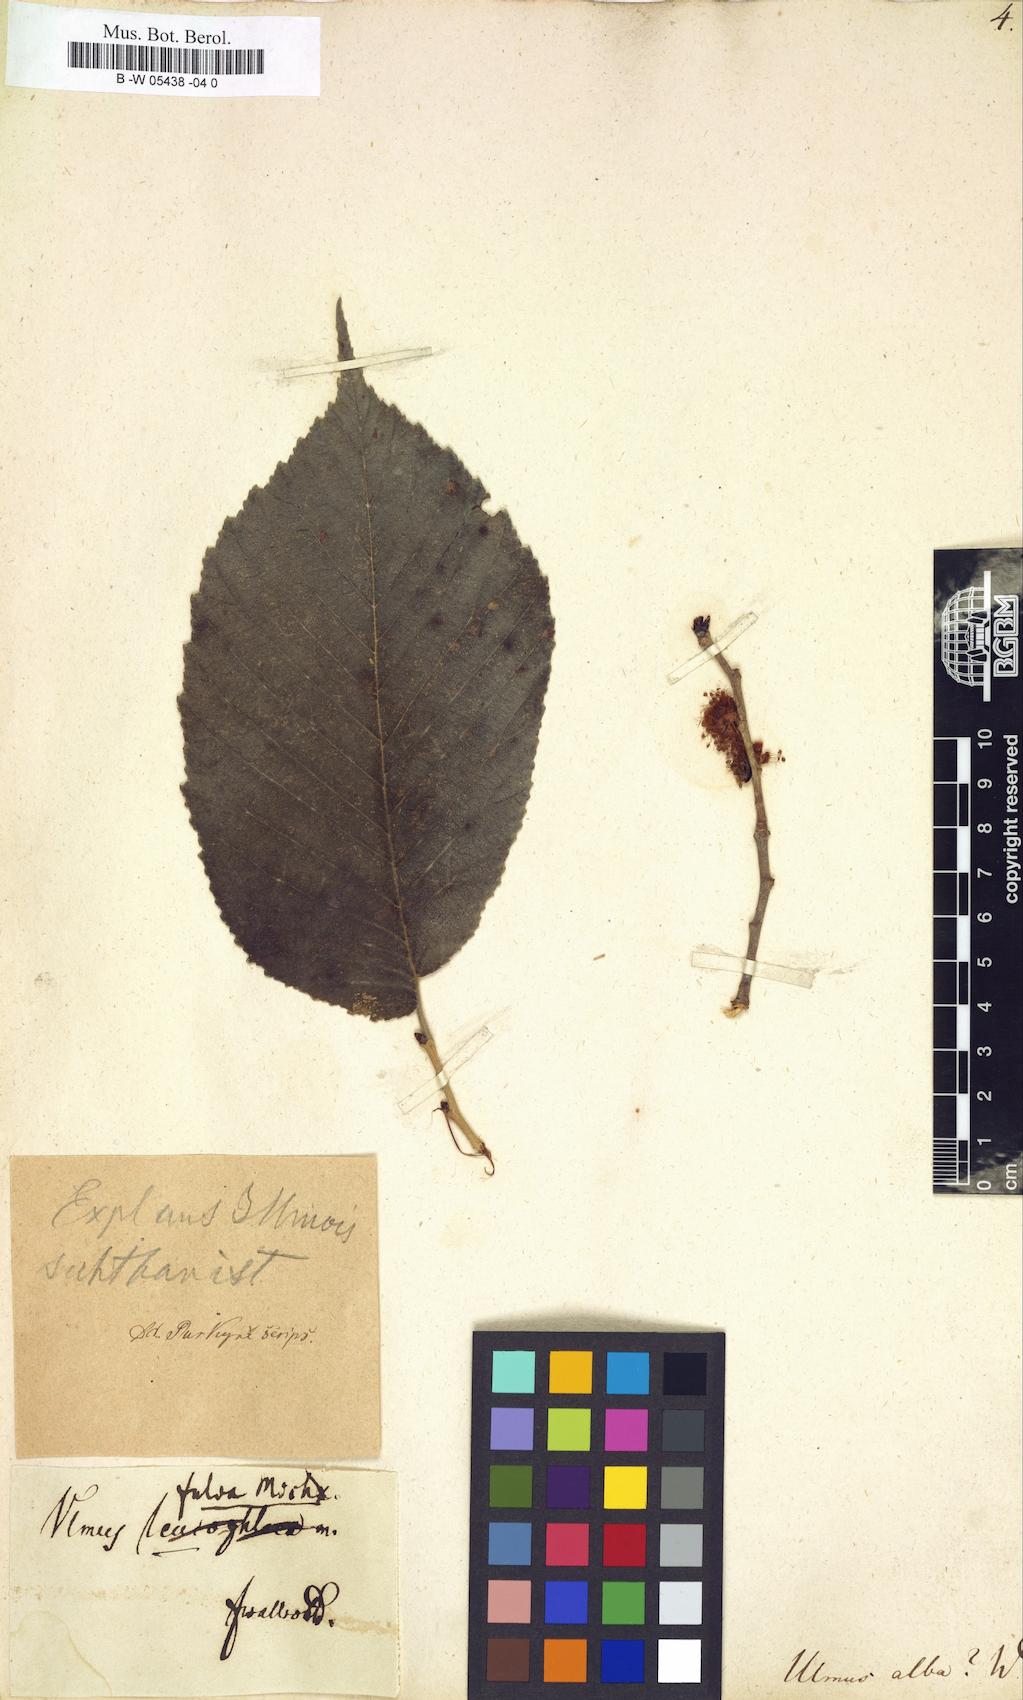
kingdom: Plantae
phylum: Tracheophyta
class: Magnoliopsida
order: Rosales
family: Ulmaceae
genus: Ulmus
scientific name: Ulmus
